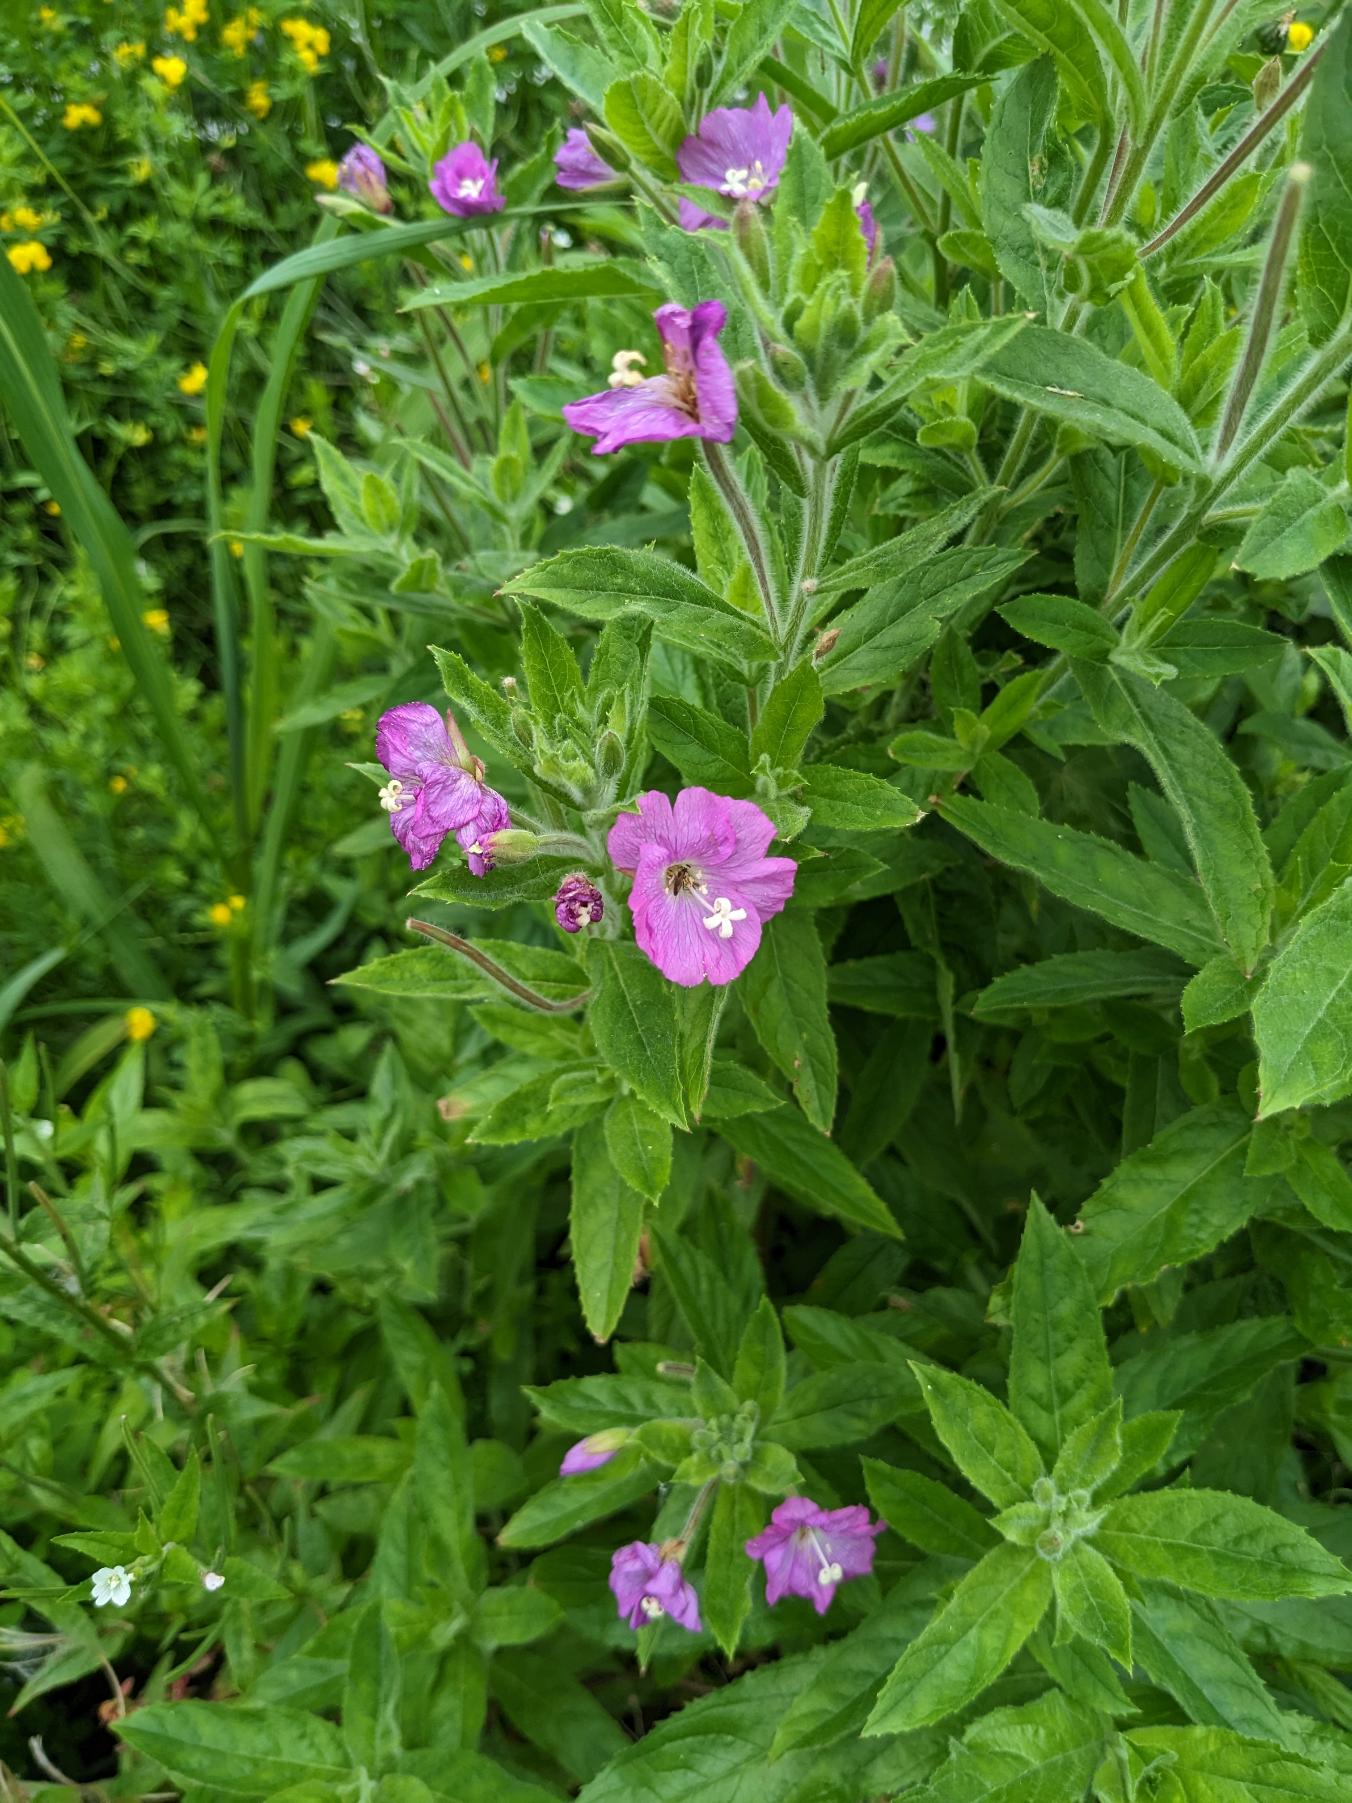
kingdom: Plantae
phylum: Tracheophyta
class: Magnoliopsida
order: Myrtales
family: Onagraceae
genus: Epilobium
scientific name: Epilobium hirsutum
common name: Lådden dueurt
